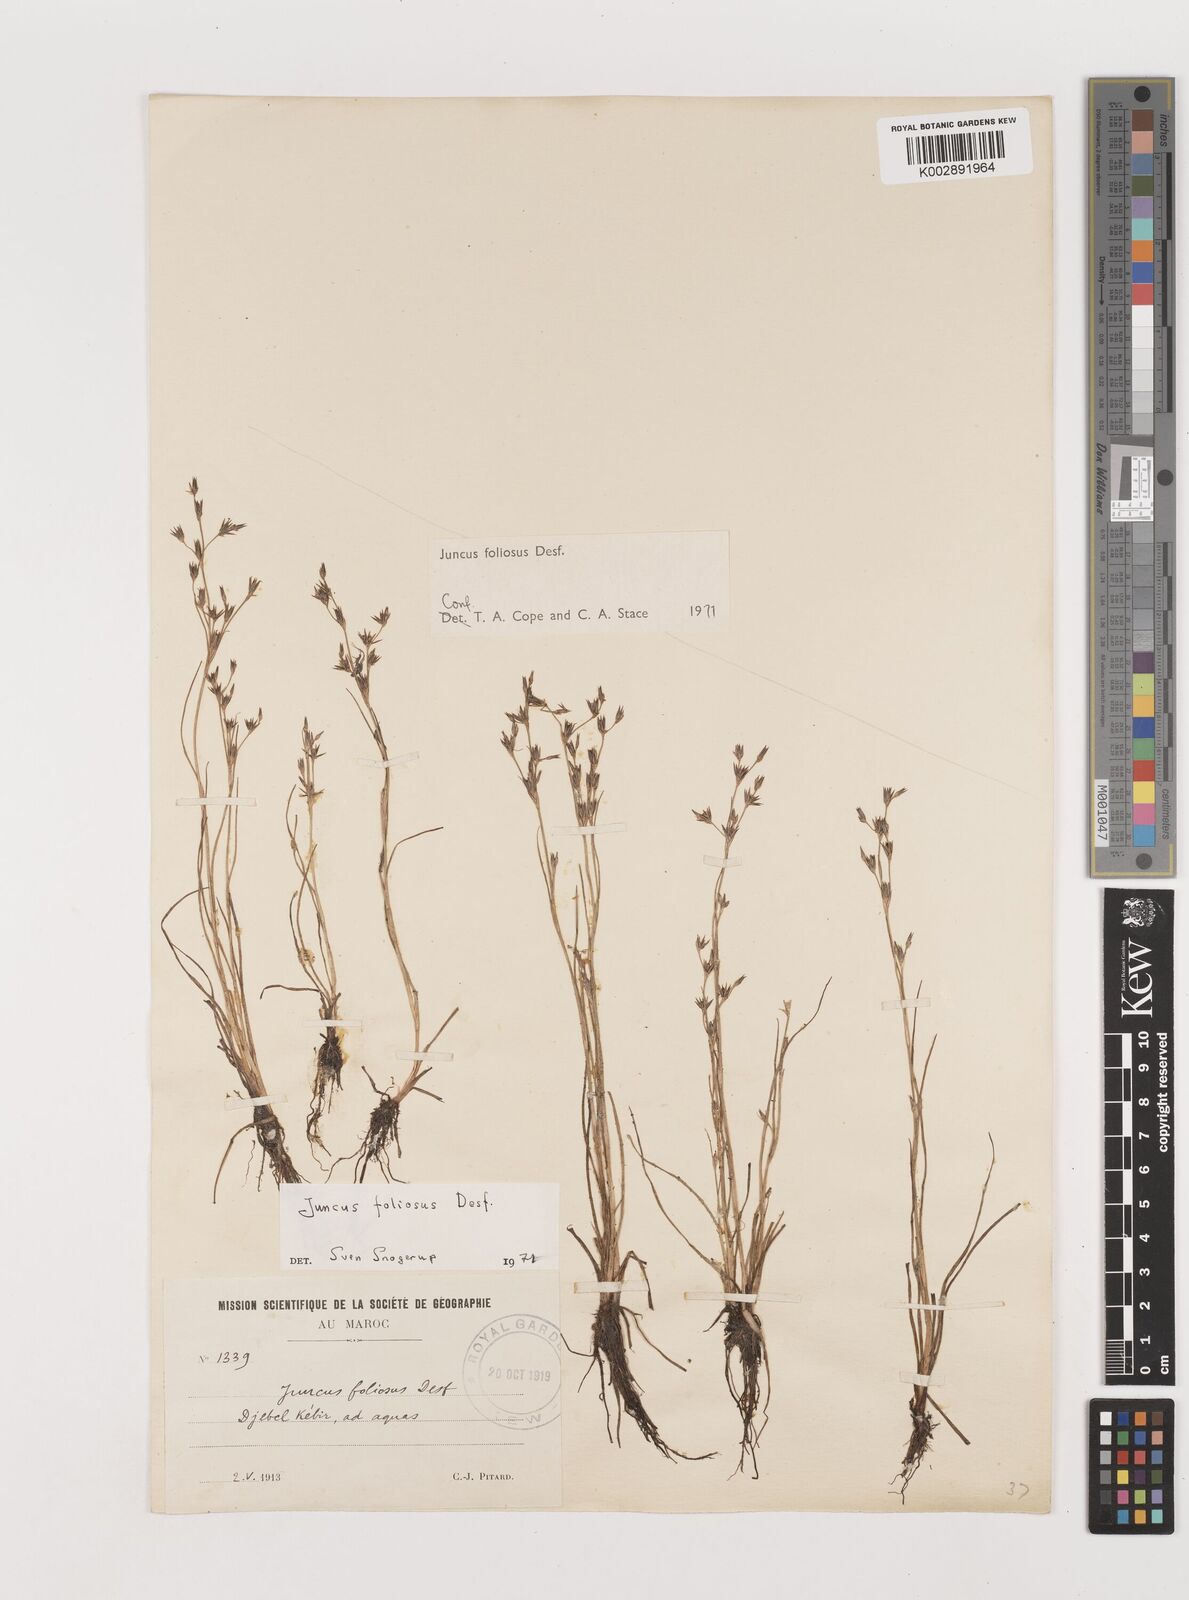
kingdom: Plantae
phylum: Tracheophyta
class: Liliopsida
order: Poales
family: Juncaceae
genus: Juncus
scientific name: Juncus acutiflorus
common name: Sharp-flowered rush
